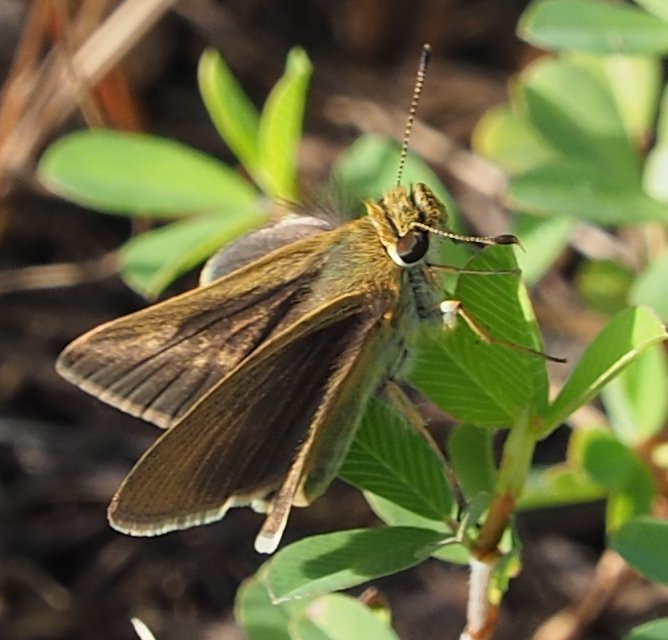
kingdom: Animalia
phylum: Arthropoda
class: Insecta
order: Lepidoptera
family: Hesperiidae
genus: Euphyes
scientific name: Euphyes vestris
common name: Dun Skipper
